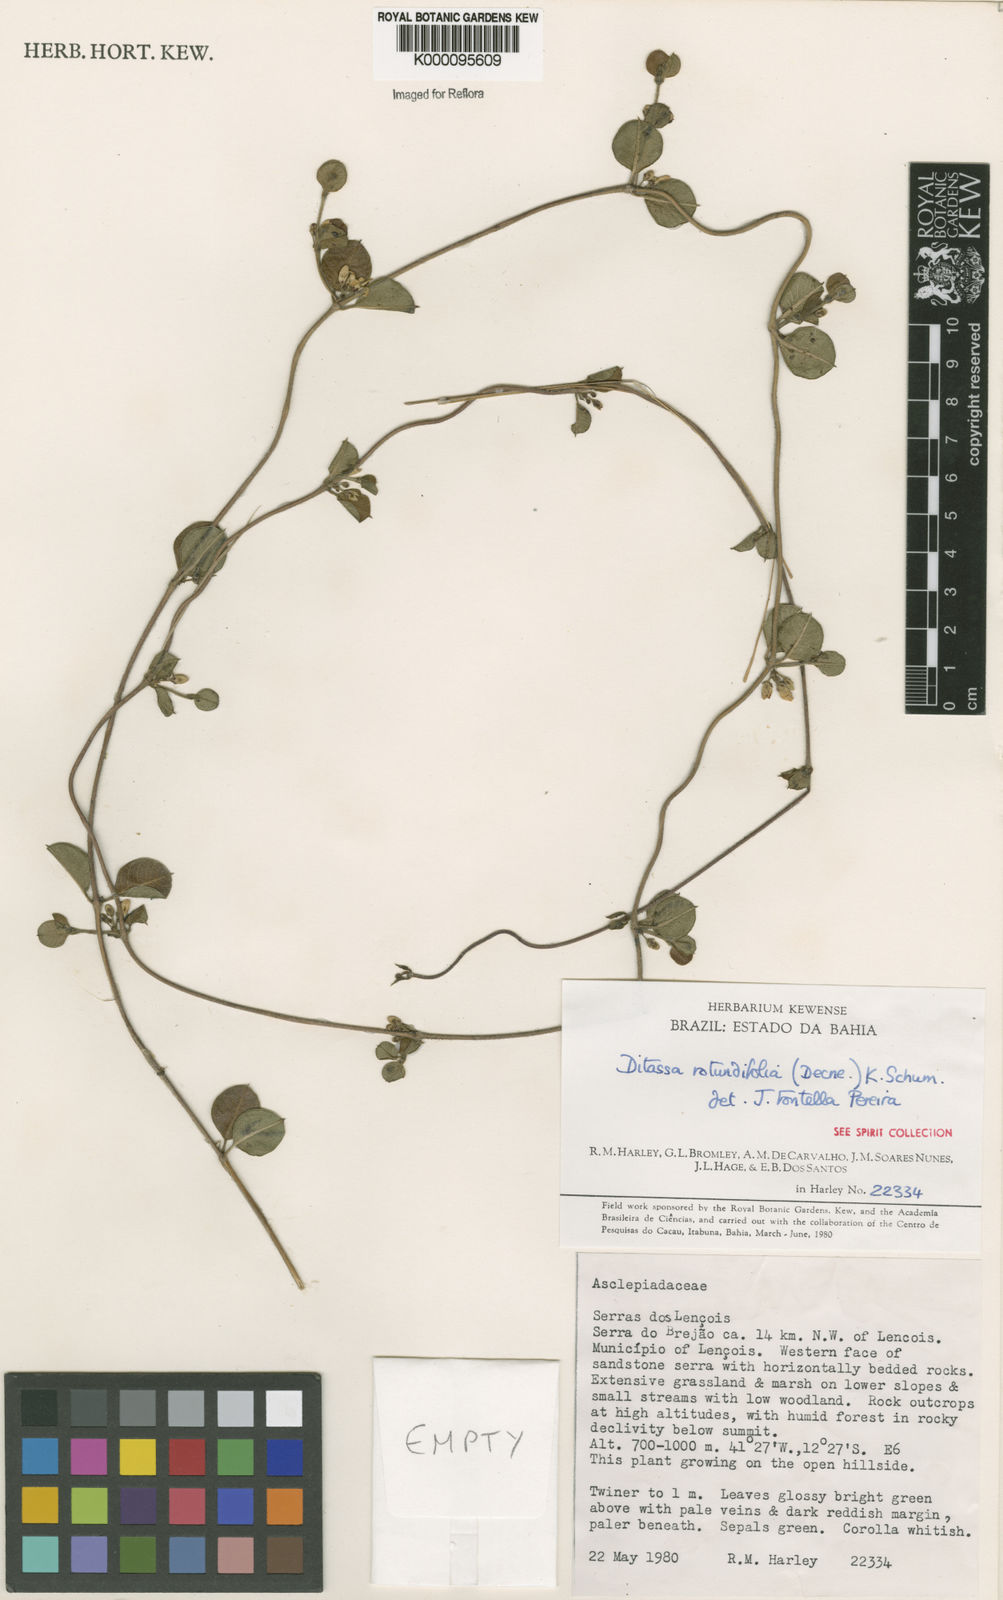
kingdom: Plantae
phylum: Tracheophyta
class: Magnoliopsida
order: Gentianales
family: Apocynaceae
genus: Ditassa
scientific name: Ditassa
